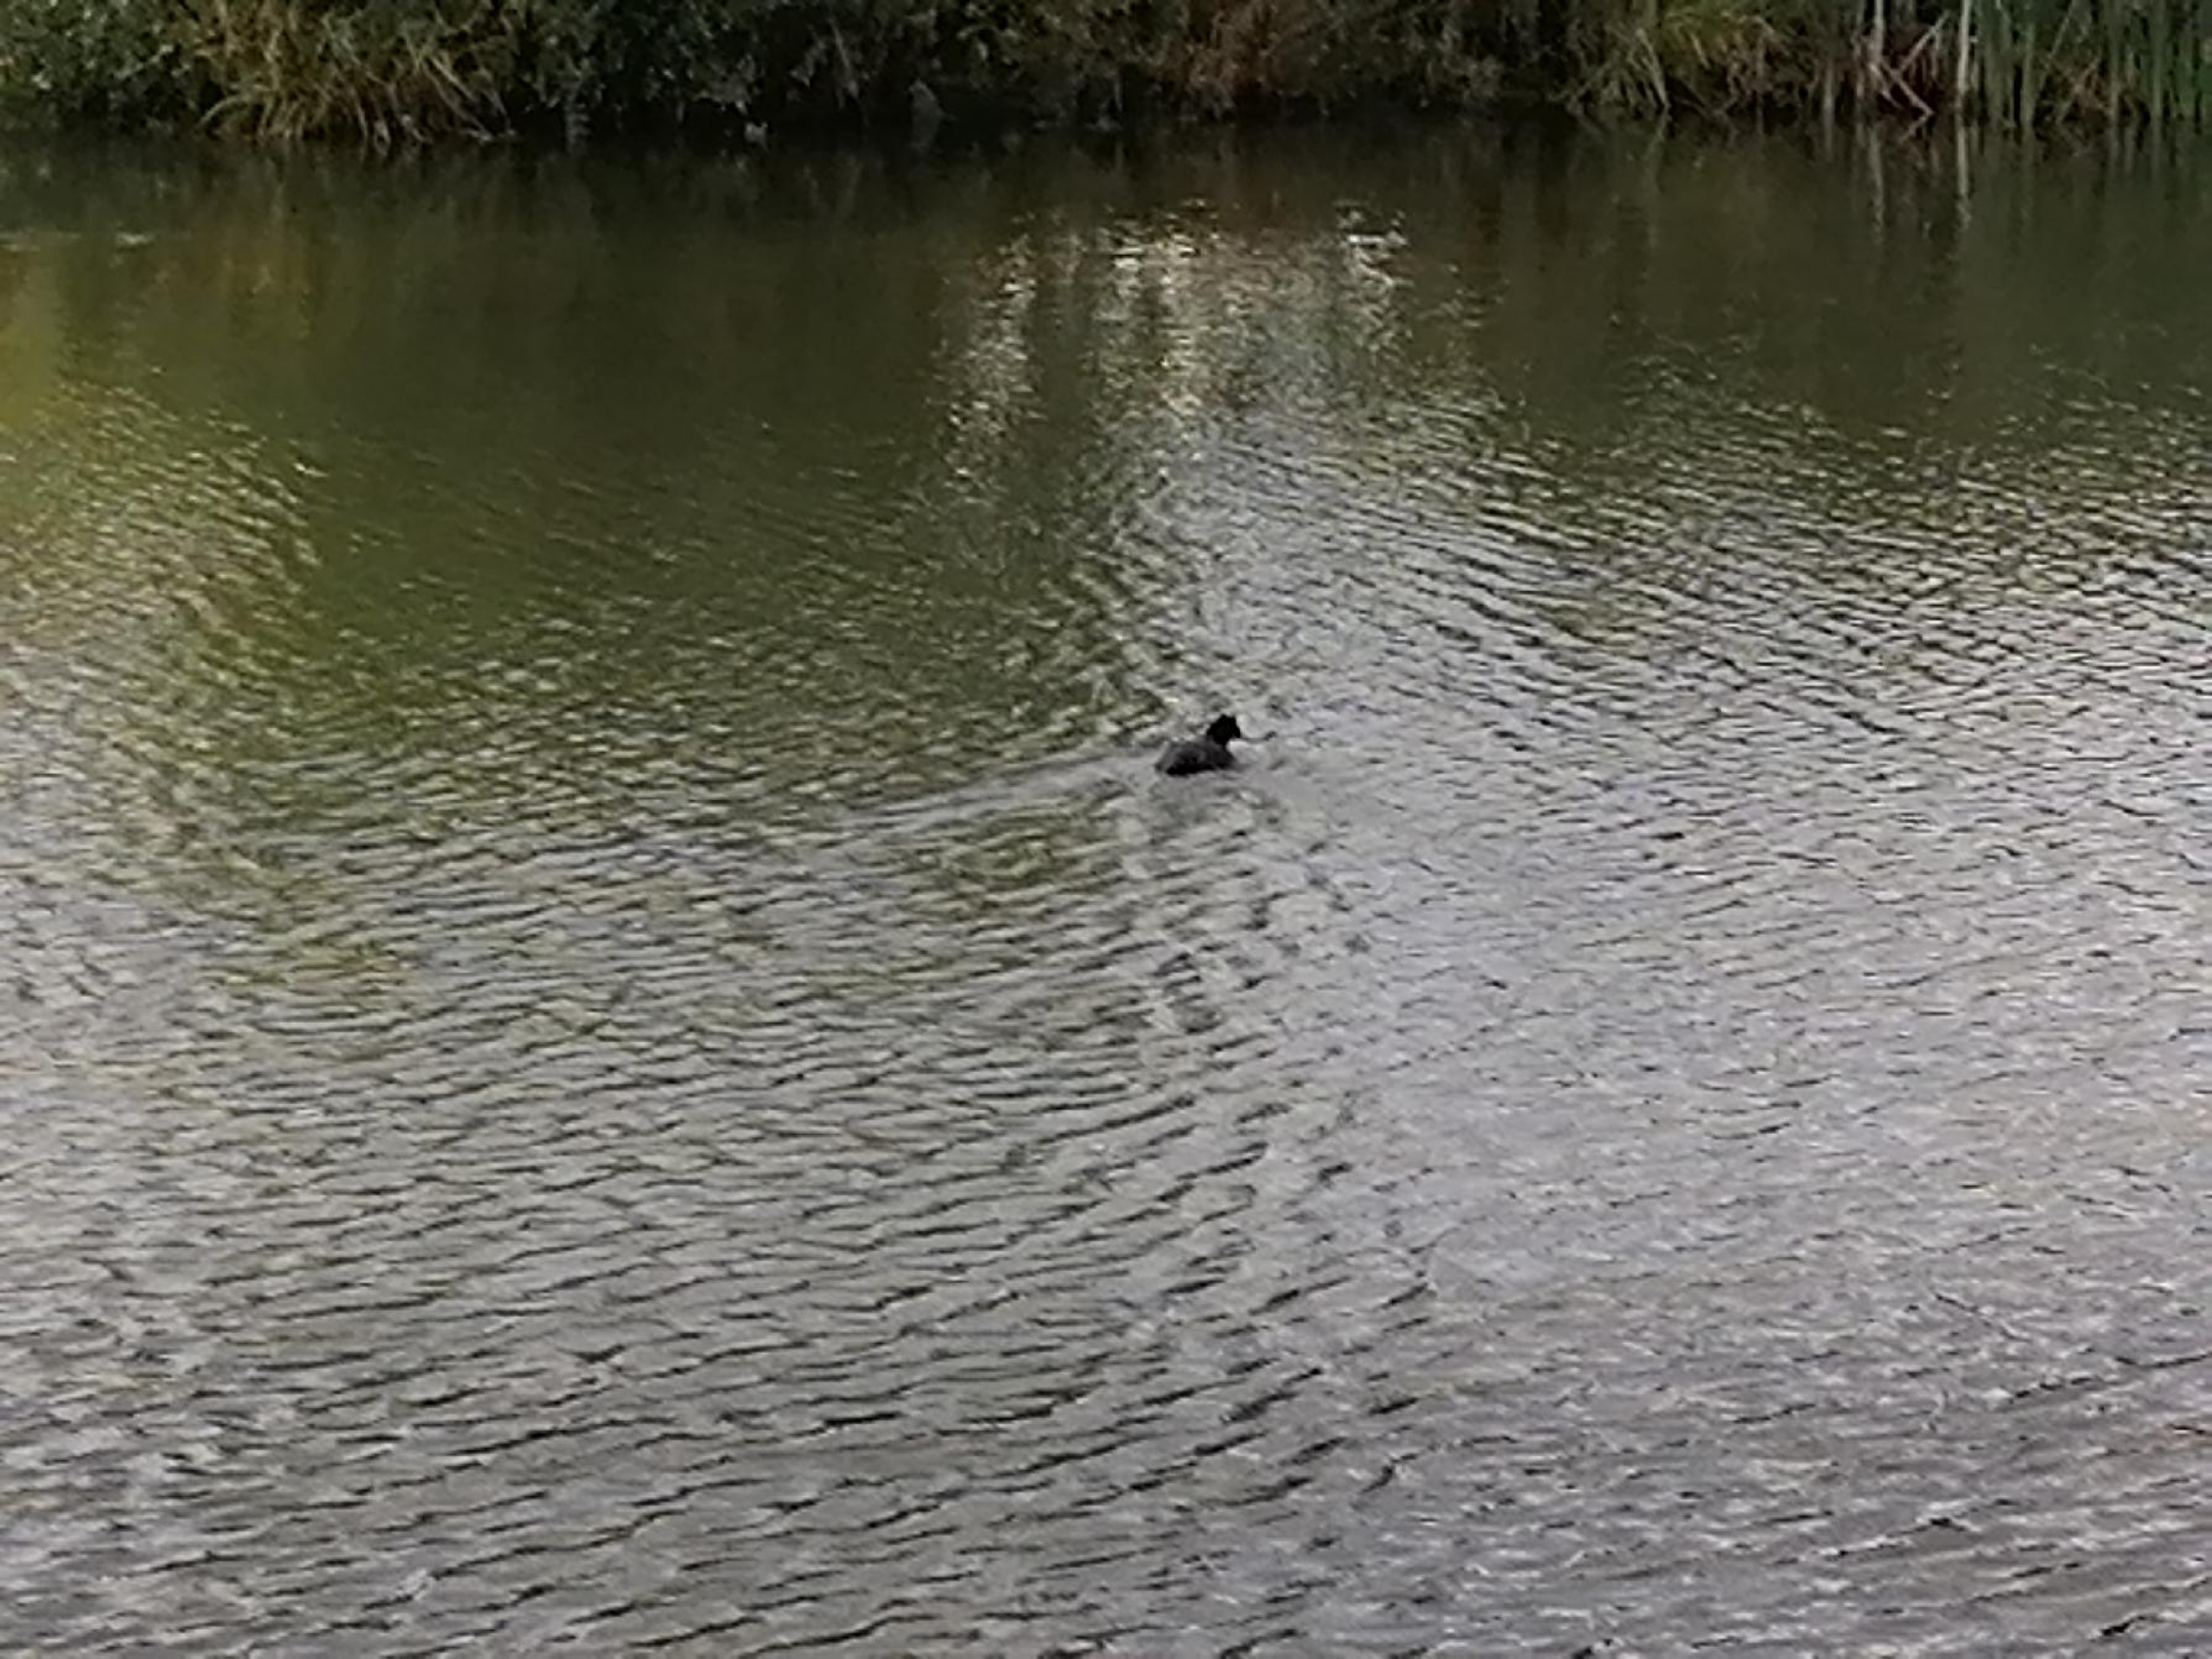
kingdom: Animalia
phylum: Chordata
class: Aves
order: Gruiformes
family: Rallidae
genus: Fulica
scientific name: Fulica atra
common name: Blishøne
